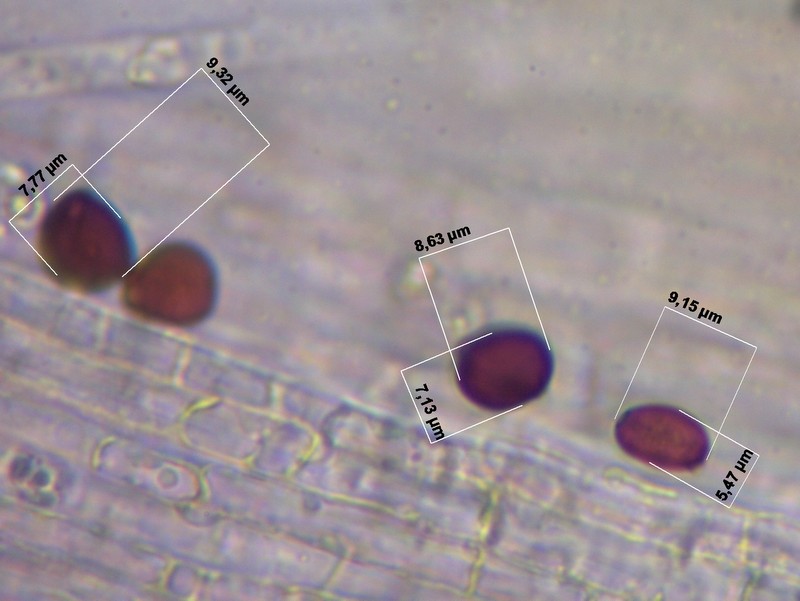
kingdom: Fungi
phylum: Basidiomycota
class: Agaricomycetes
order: Agaricales
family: Psathyrellaceae
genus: Parasola
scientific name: Parasola lactea
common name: glat hjulhat
